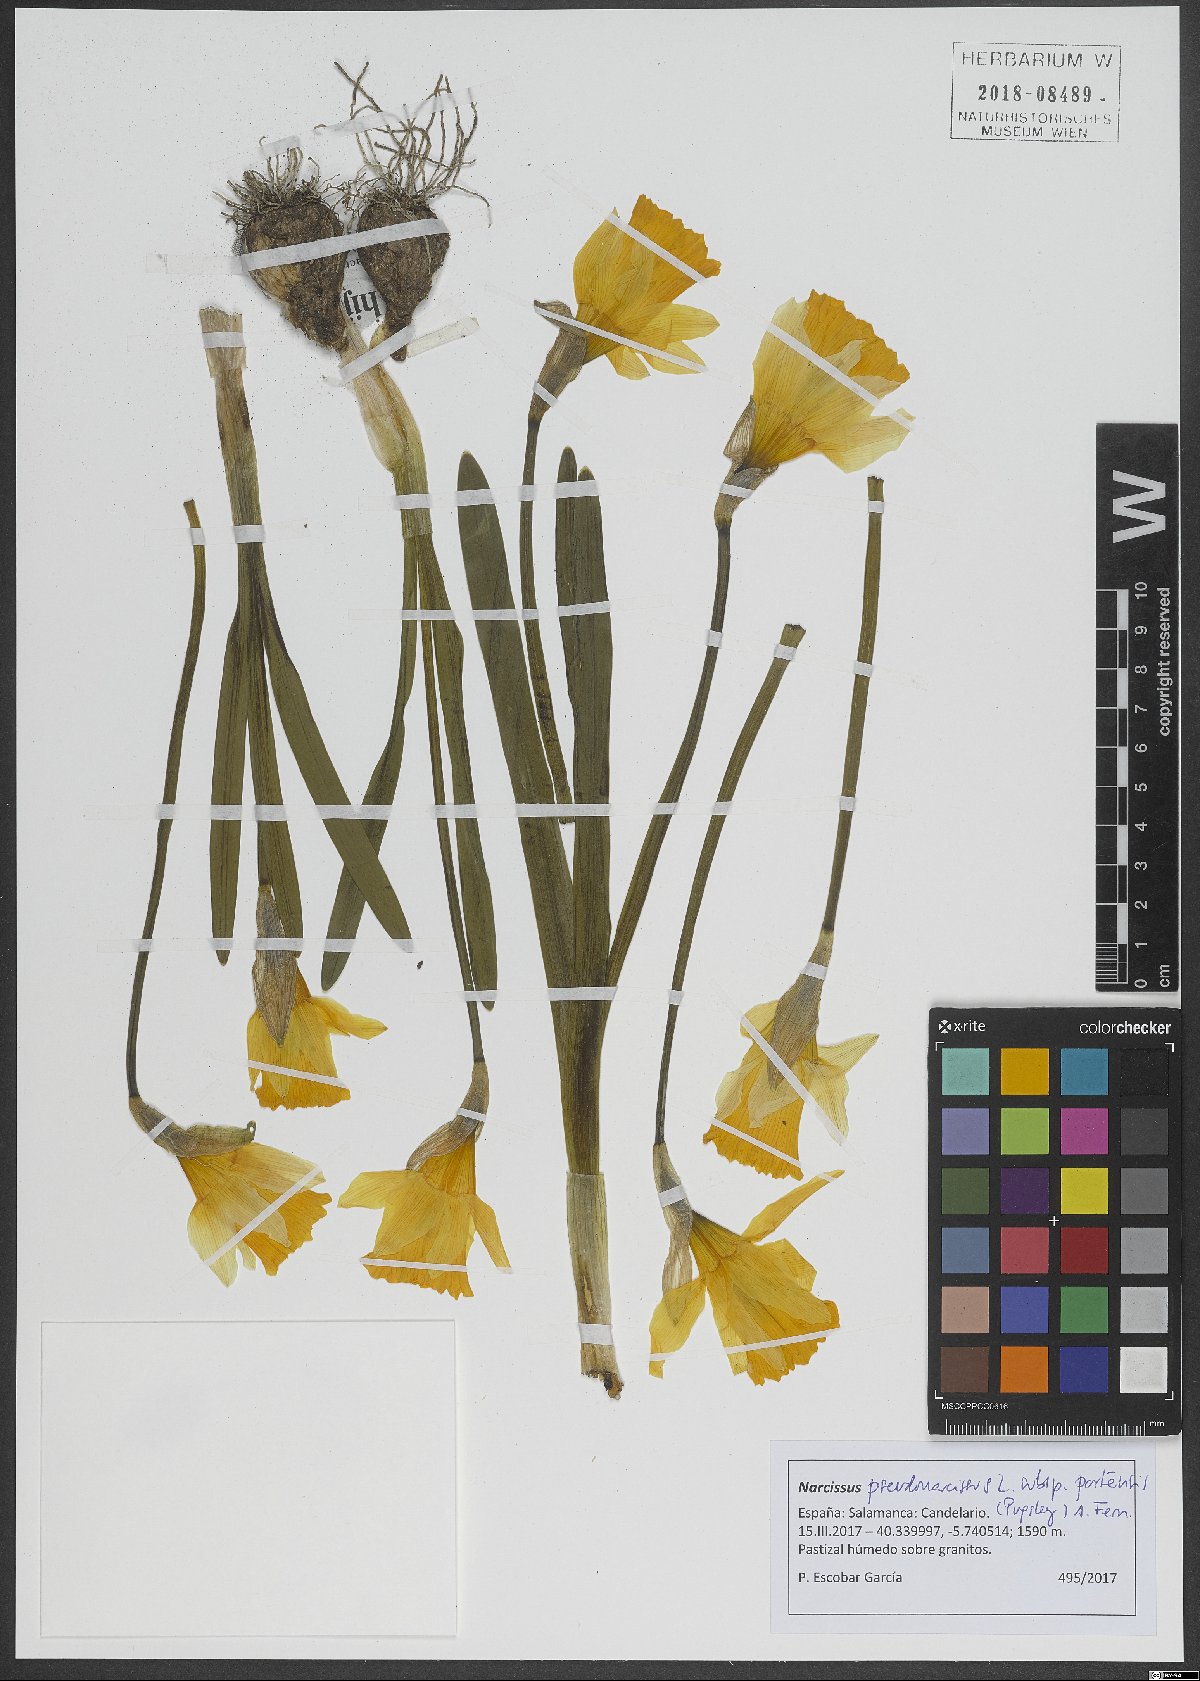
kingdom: Plantae
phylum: Tracheophyta
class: Liliopsida
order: Asparagales
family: Amaryllidaceae
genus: Narcissus
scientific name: Narcissus portensis
